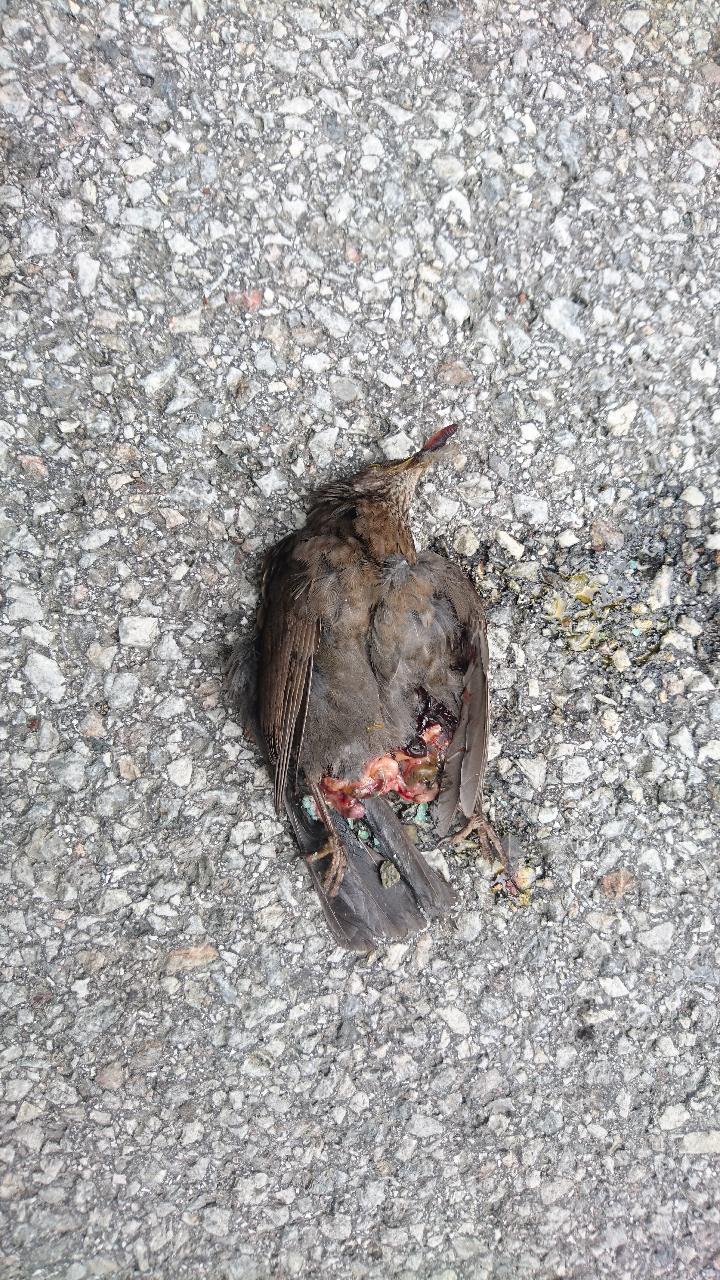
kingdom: Animalia
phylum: Chordata
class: Aves
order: Passeriformes
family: Turdidae
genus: Turdus
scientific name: Turdus merula
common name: Common blackbird
